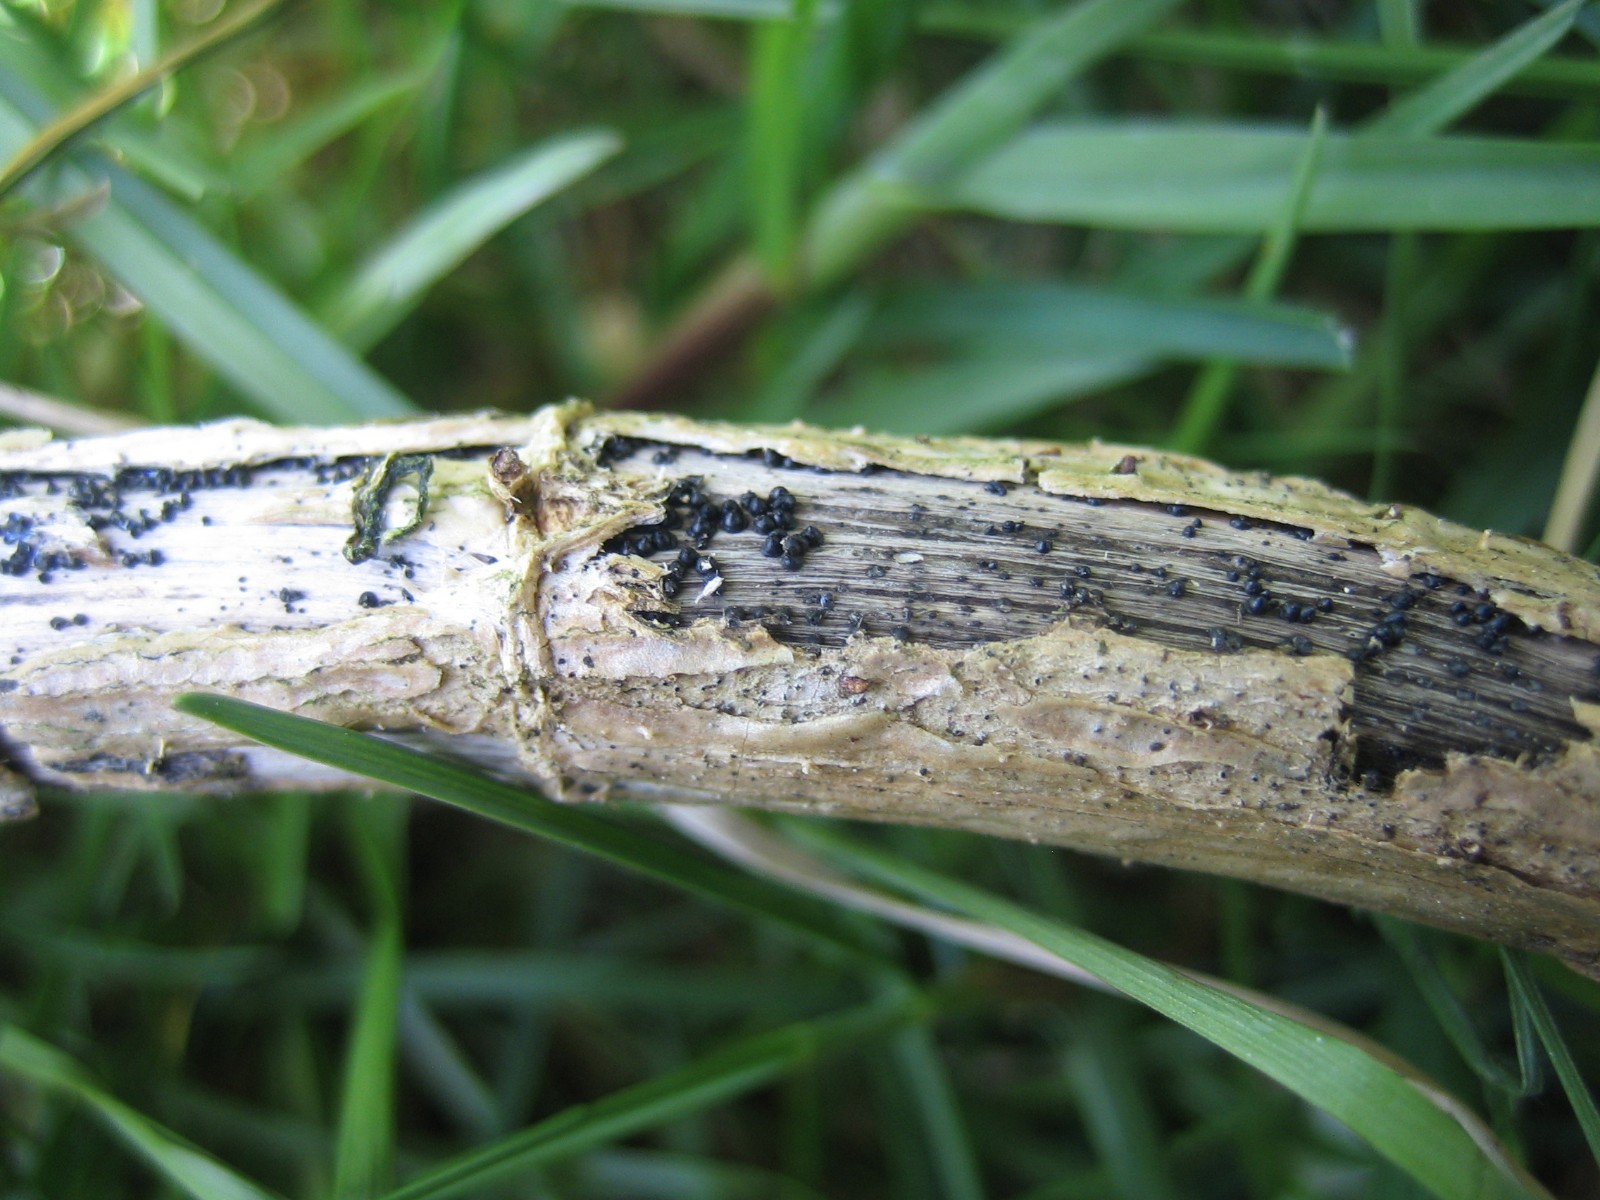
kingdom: Fungi
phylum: Ascomycota
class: Dothideomycetes
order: Pleosporales
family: Leptosphaeriaceae
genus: Leptosphaeria
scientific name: Leptosphaeria
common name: kulkegle
